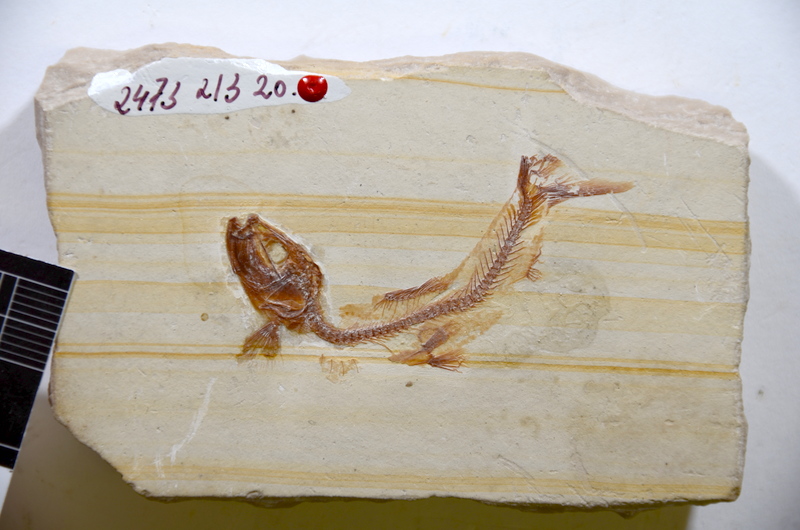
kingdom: Animalia
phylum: Chordata
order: Salmoniformes
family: Orthogonikleithridae
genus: Leptolepides
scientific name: Leptolepides haerteisi
